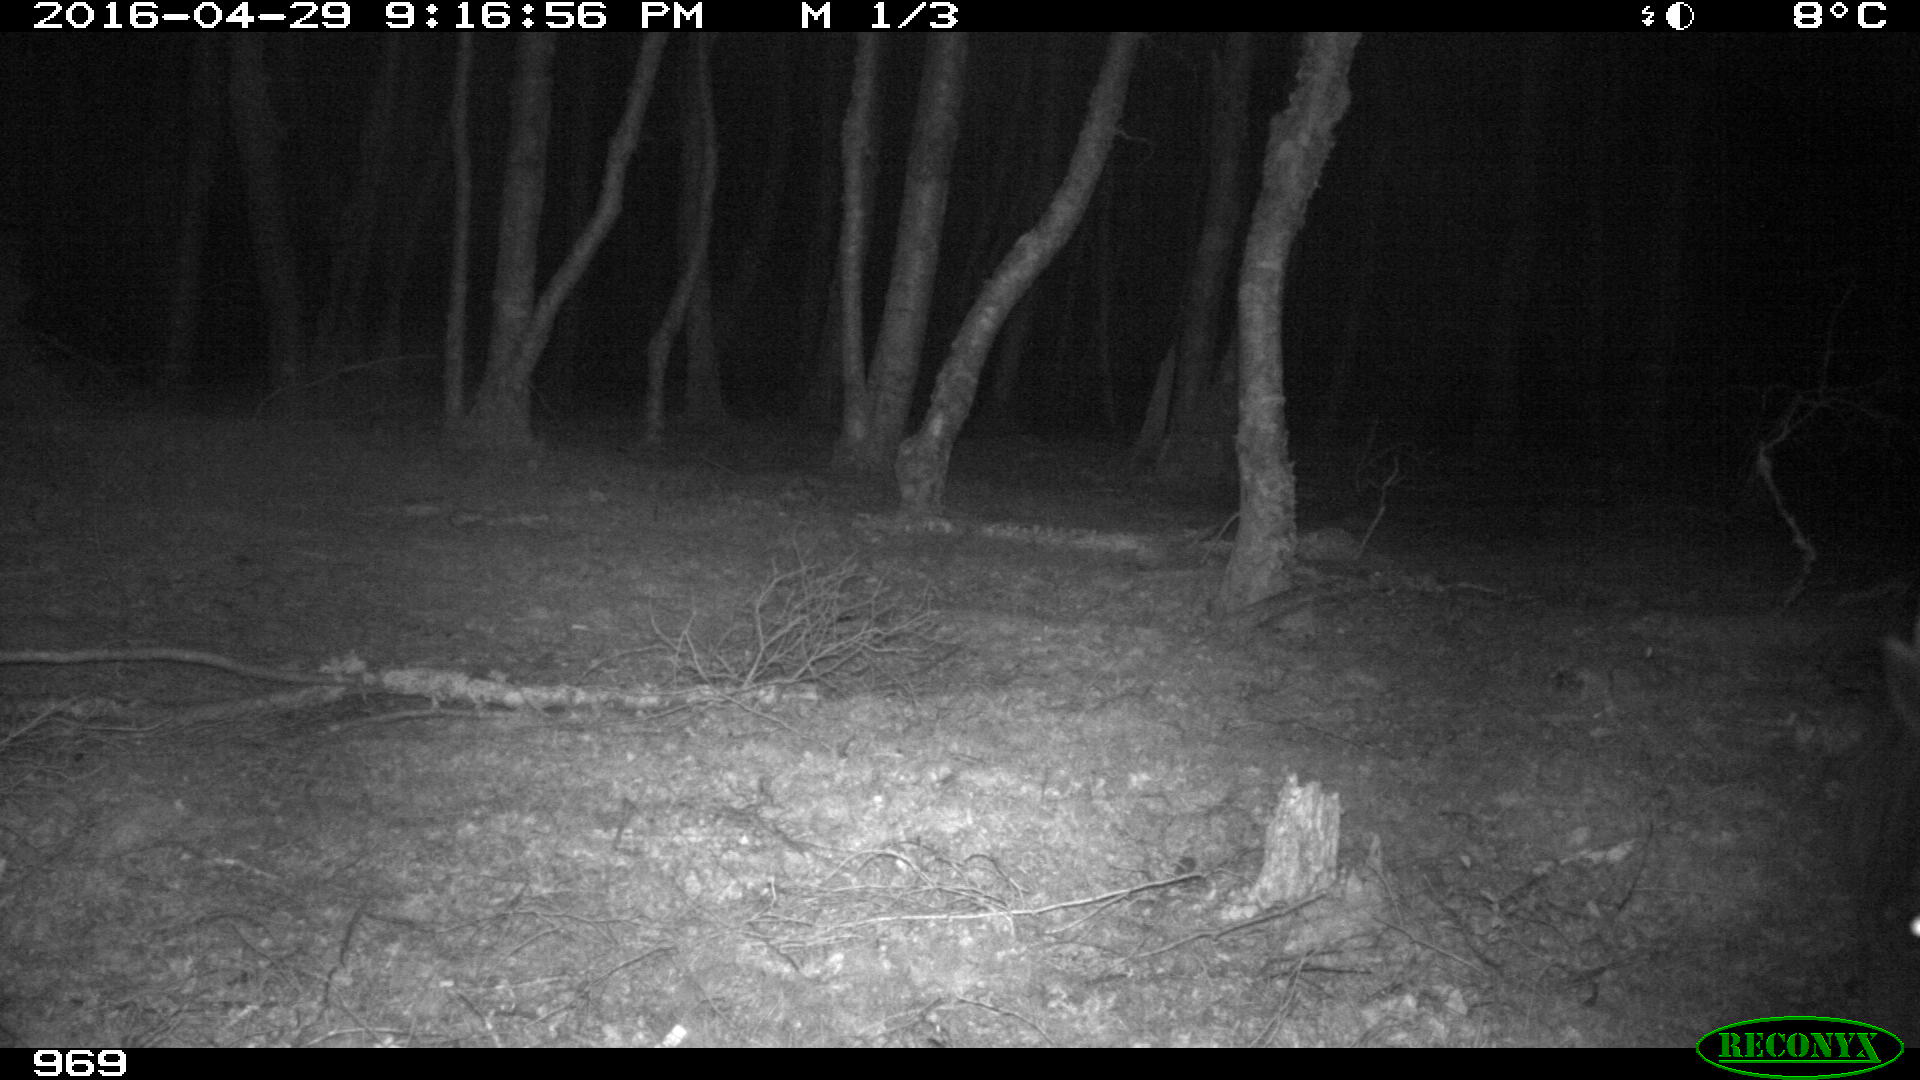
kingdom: Animalia
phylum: Chordata
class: Mammalia
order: Perissodactyla
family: Equidae
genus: Equus
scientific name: Equus caballus
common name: Horse
